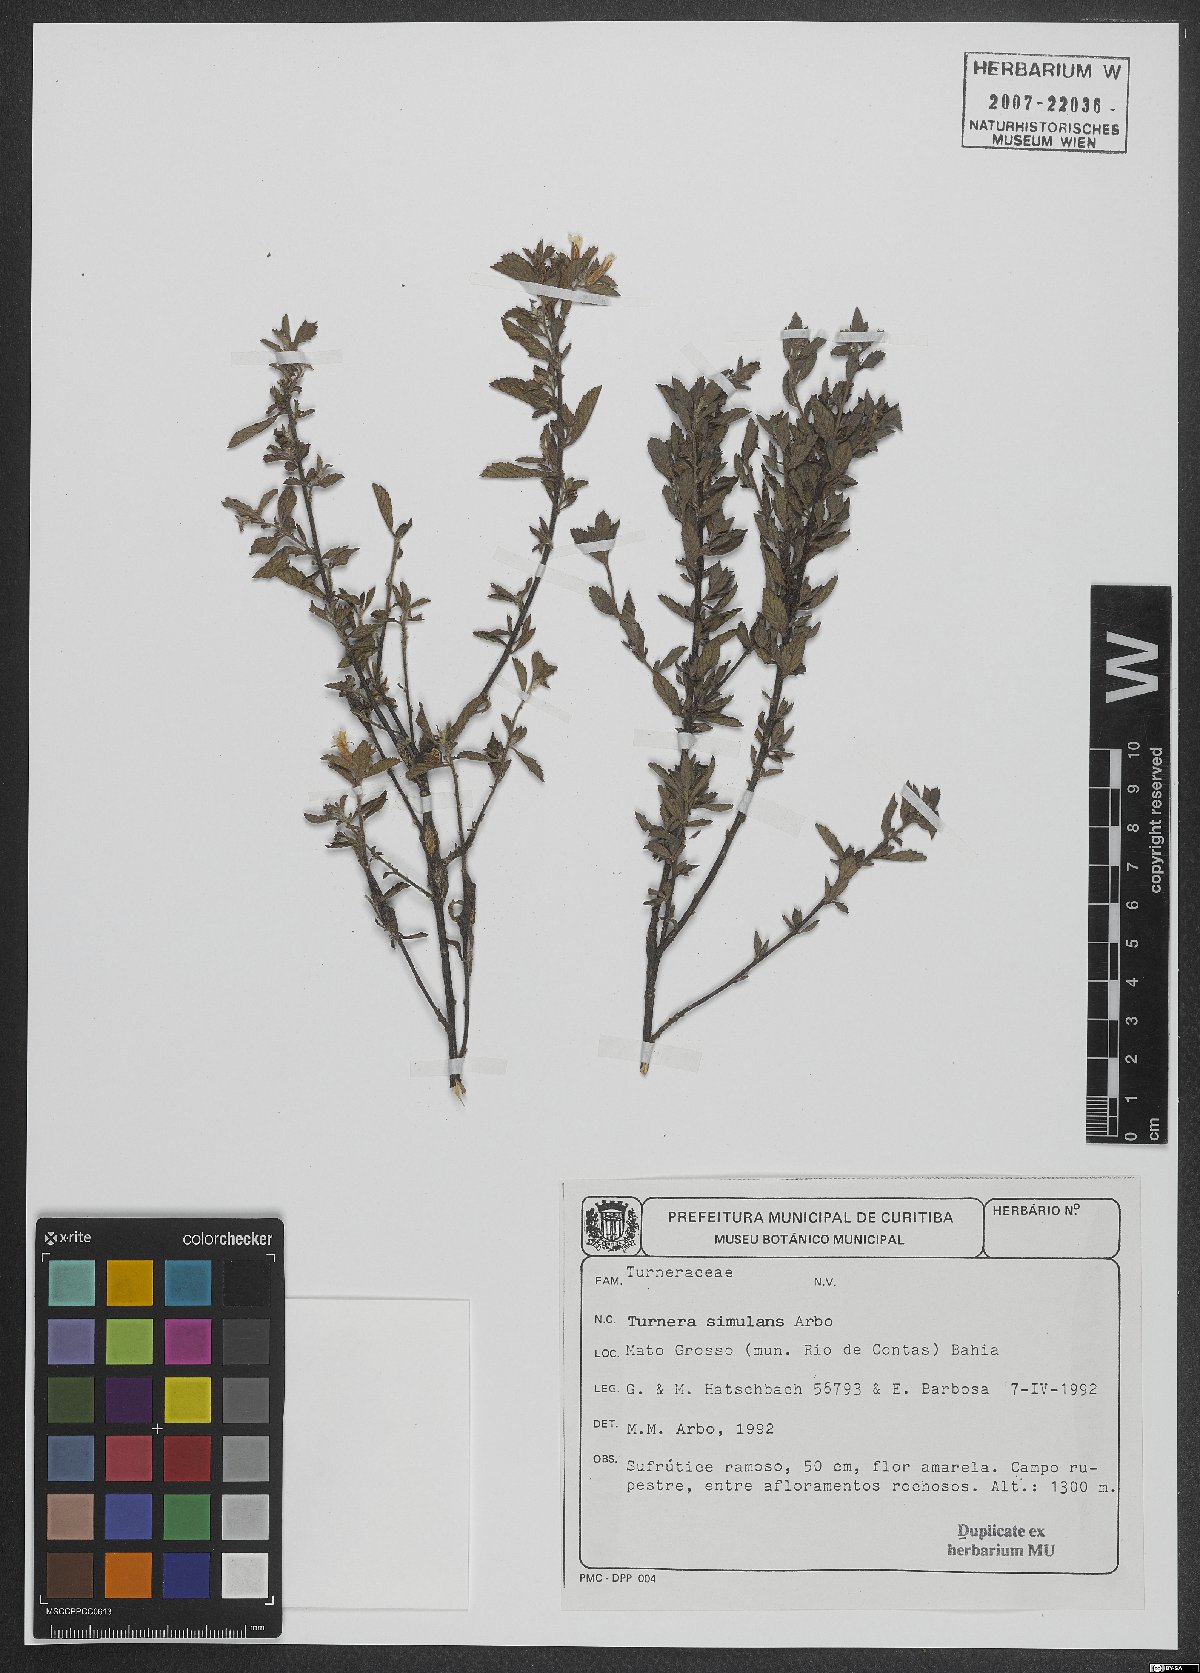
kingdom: Plantae
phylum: Tracheophyta
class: Magnoliopsida
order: Malpighiales
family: Turneraceae
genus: Turnera
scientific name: Turnera simulans
